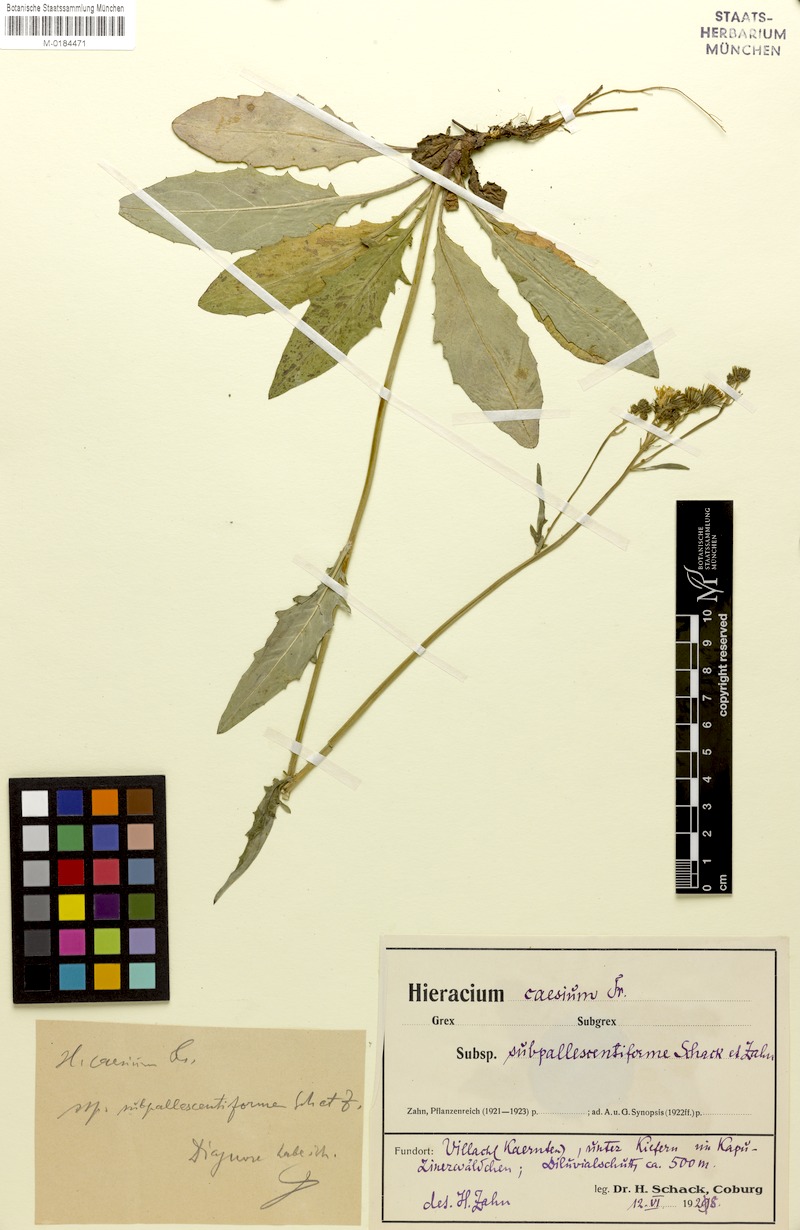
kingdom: Plantae
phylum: Tracheophyta
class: Magnoliopsida
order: Asterales
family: Asteraceae
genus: Hieracium
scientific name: Hieracium caesium
